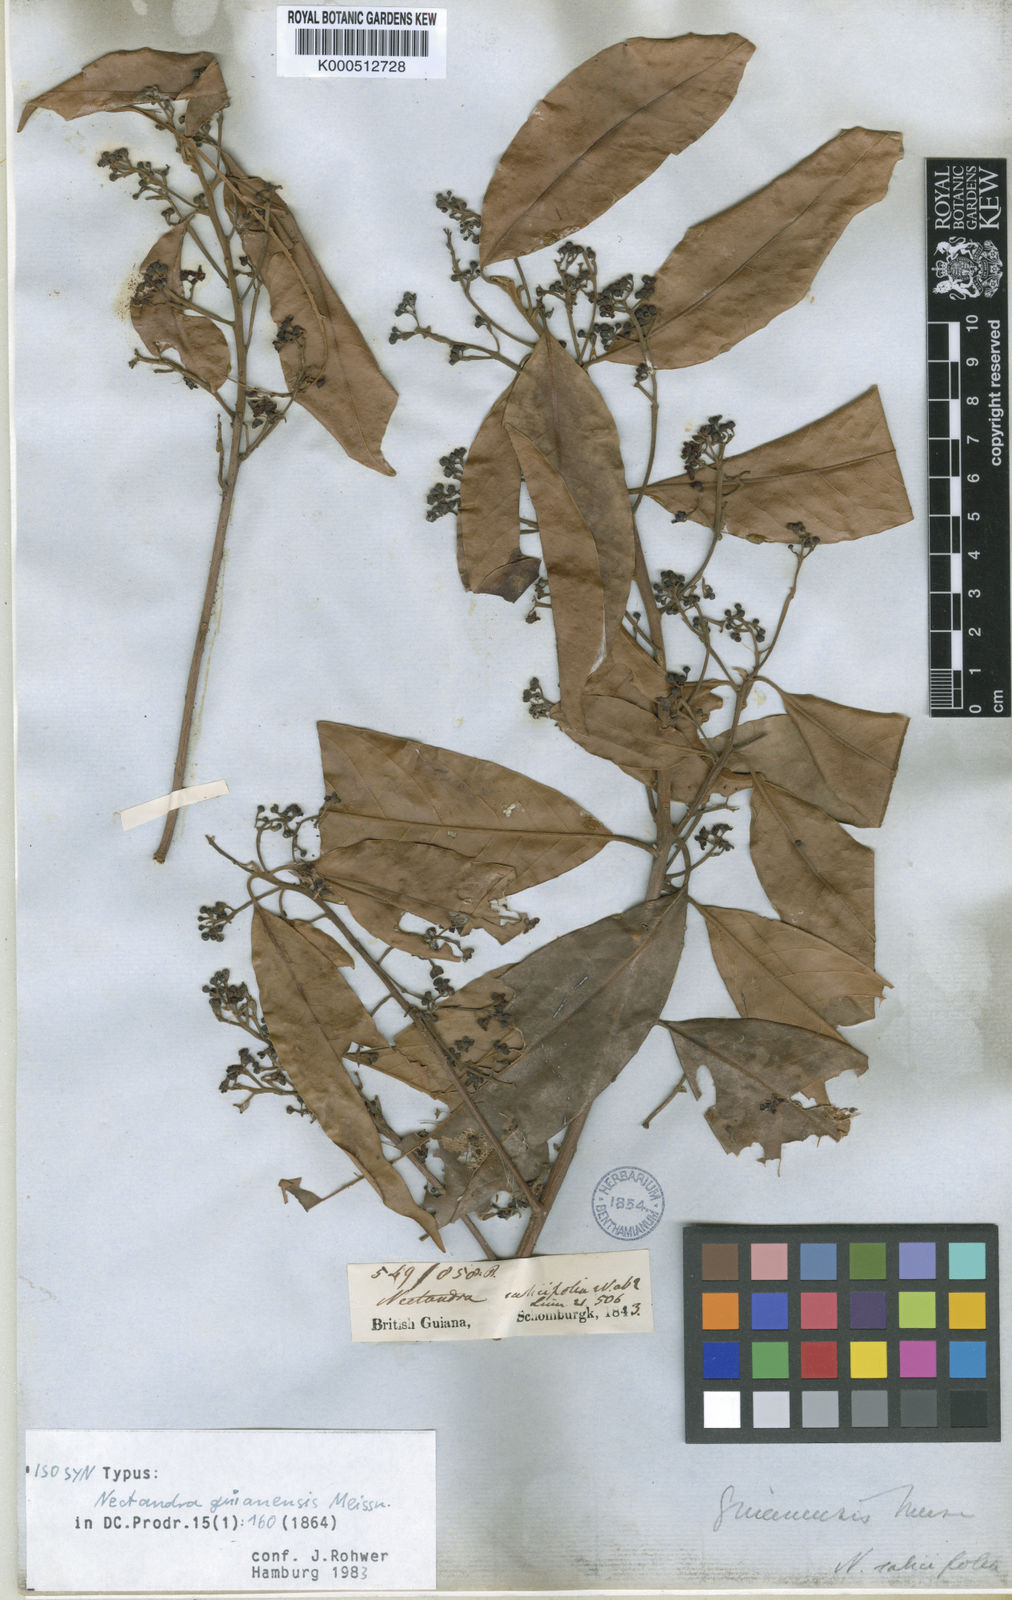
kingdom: Plantae
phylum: Tracheophyta
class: Magnoliopsida
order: Laurales
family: Lauraceae
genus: Nectandra
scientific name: Nectandra sanguinea
